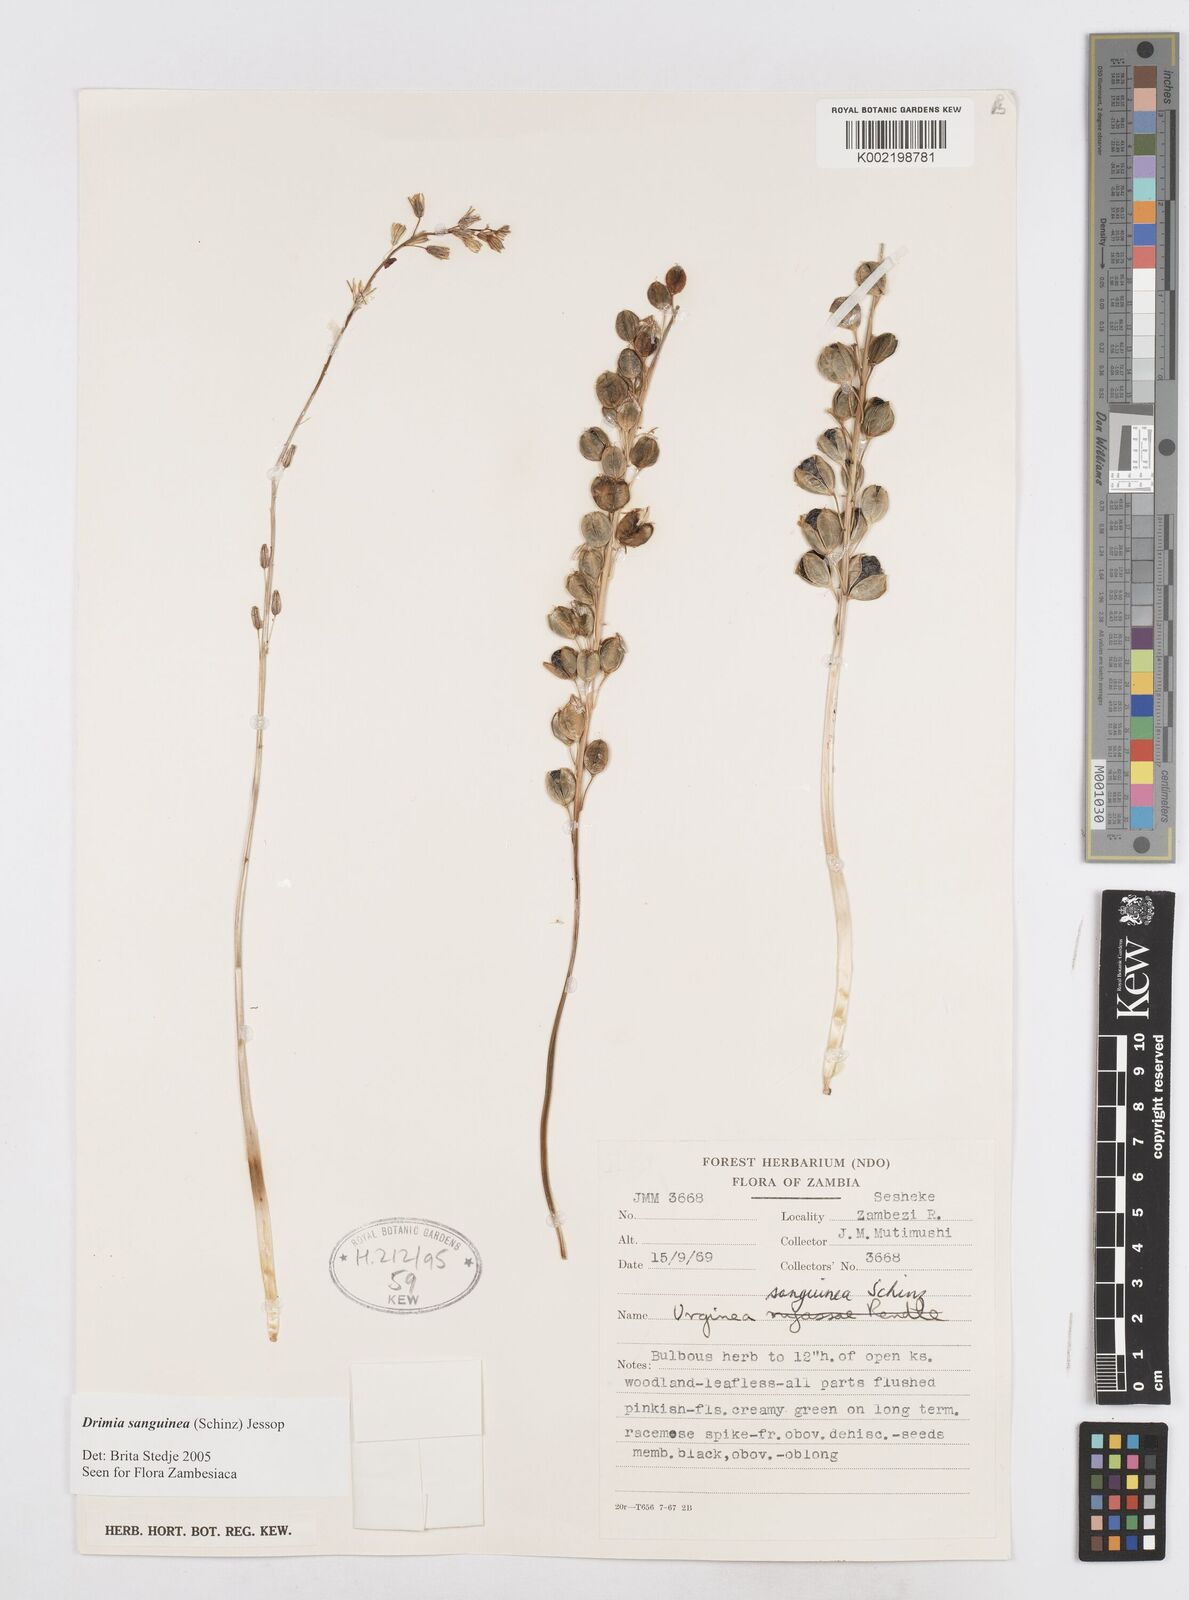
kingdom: Plantae
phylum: Tracheophyta
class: Liliopsida
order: Asparagales
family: Asparagaceae
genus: Drimia
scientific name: Drimia sanguinea
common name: Transvaal slangkop
